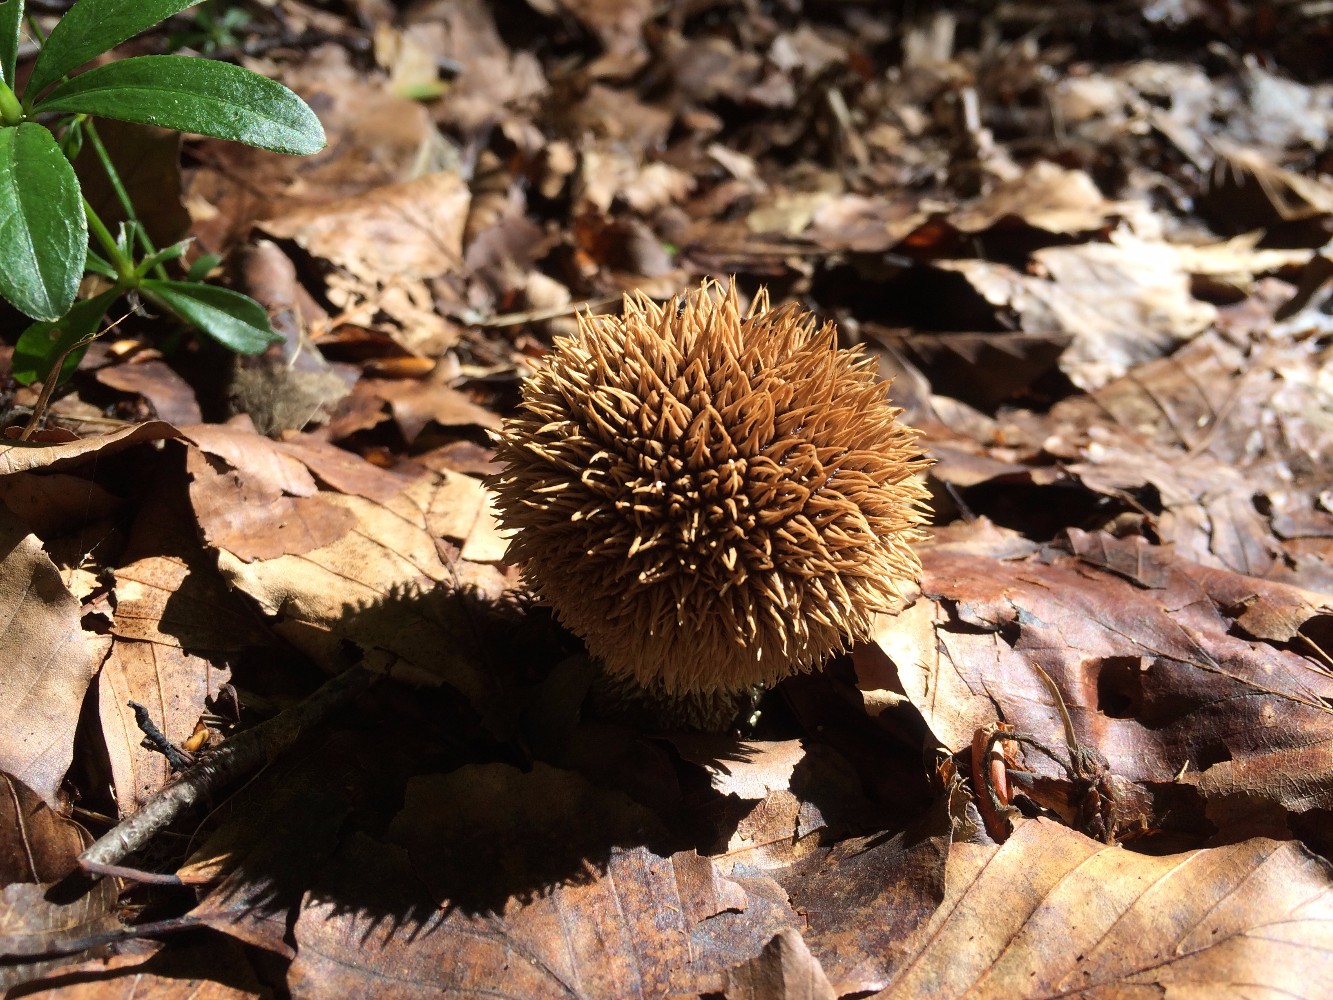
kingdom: Fungi
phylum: Basidiomycota
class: Agaricomycetes
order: Agaricales
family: Lycoperdaceae
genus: Lycoperdon
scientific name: Lycoperdon echinatum
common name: pindsvine-støvbold
